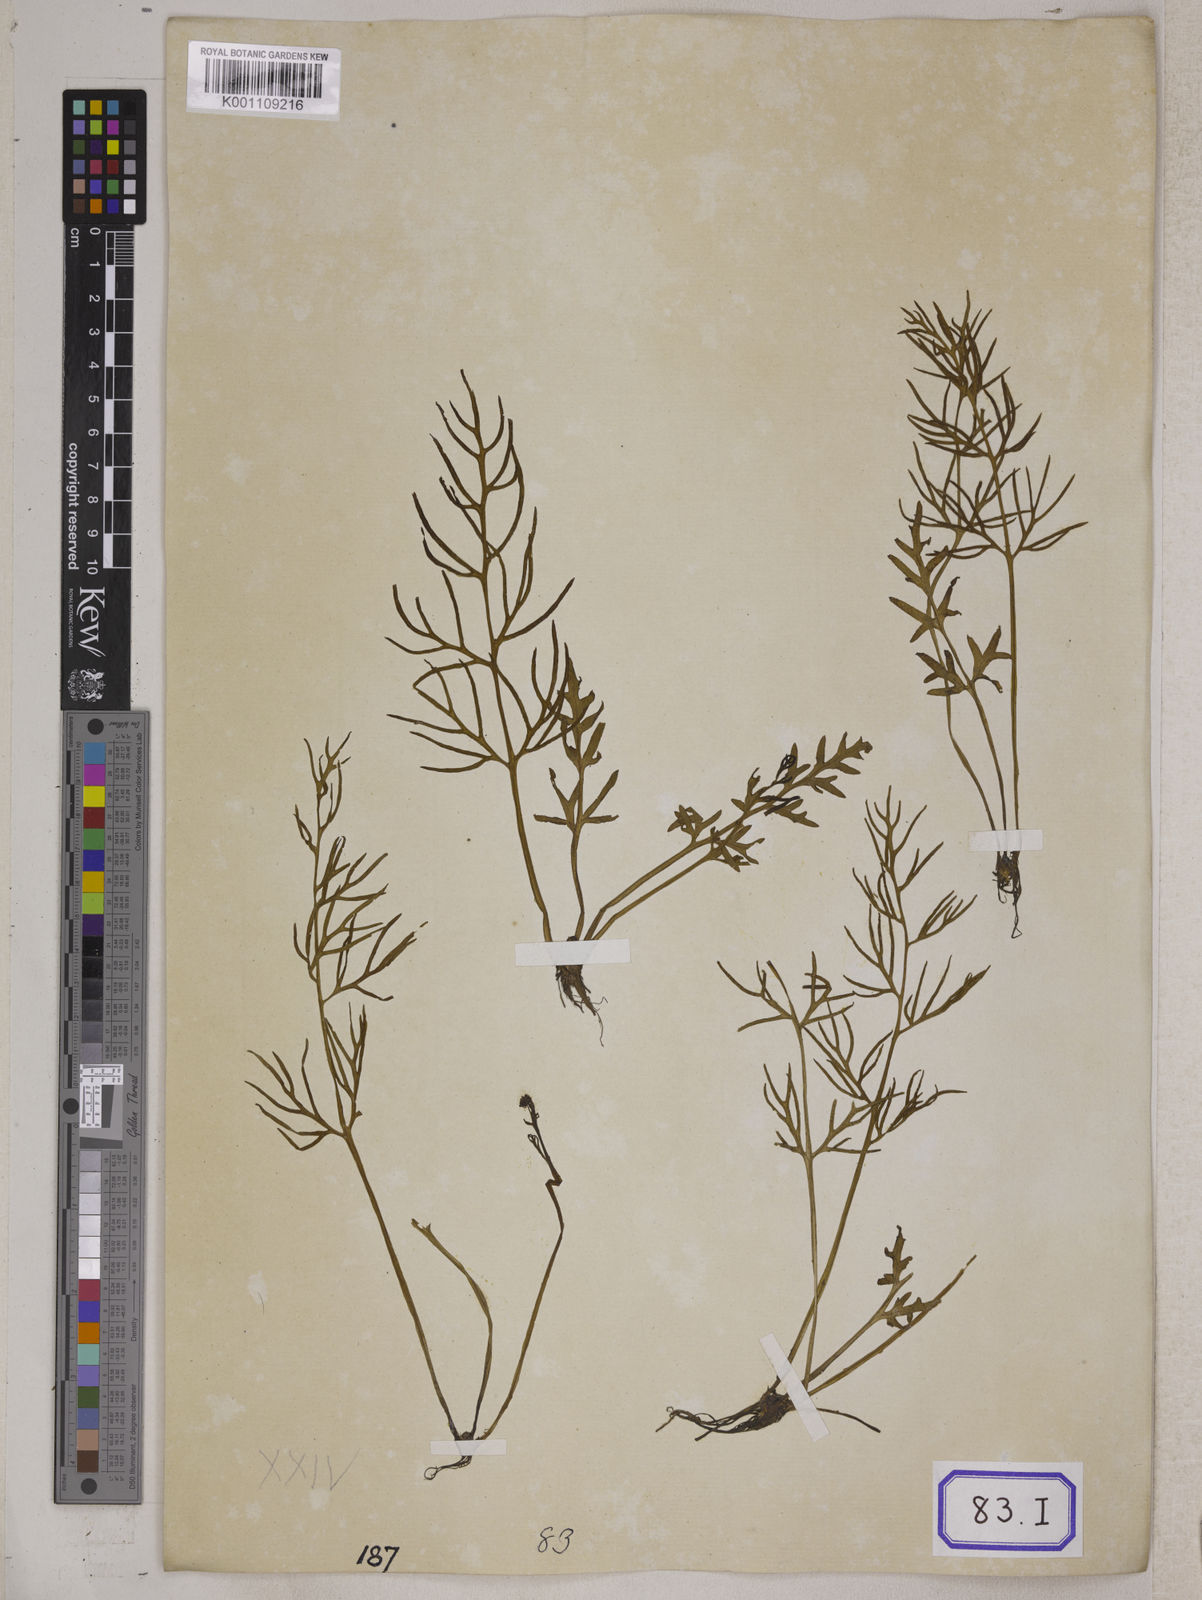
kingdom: Plantae
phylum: Tracheophyta
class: Polypodiopsida
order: Polypodiales
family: Pteridaceae
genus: Ceratopteris
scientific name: Ceratopteris thalictroides
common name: Water fern
